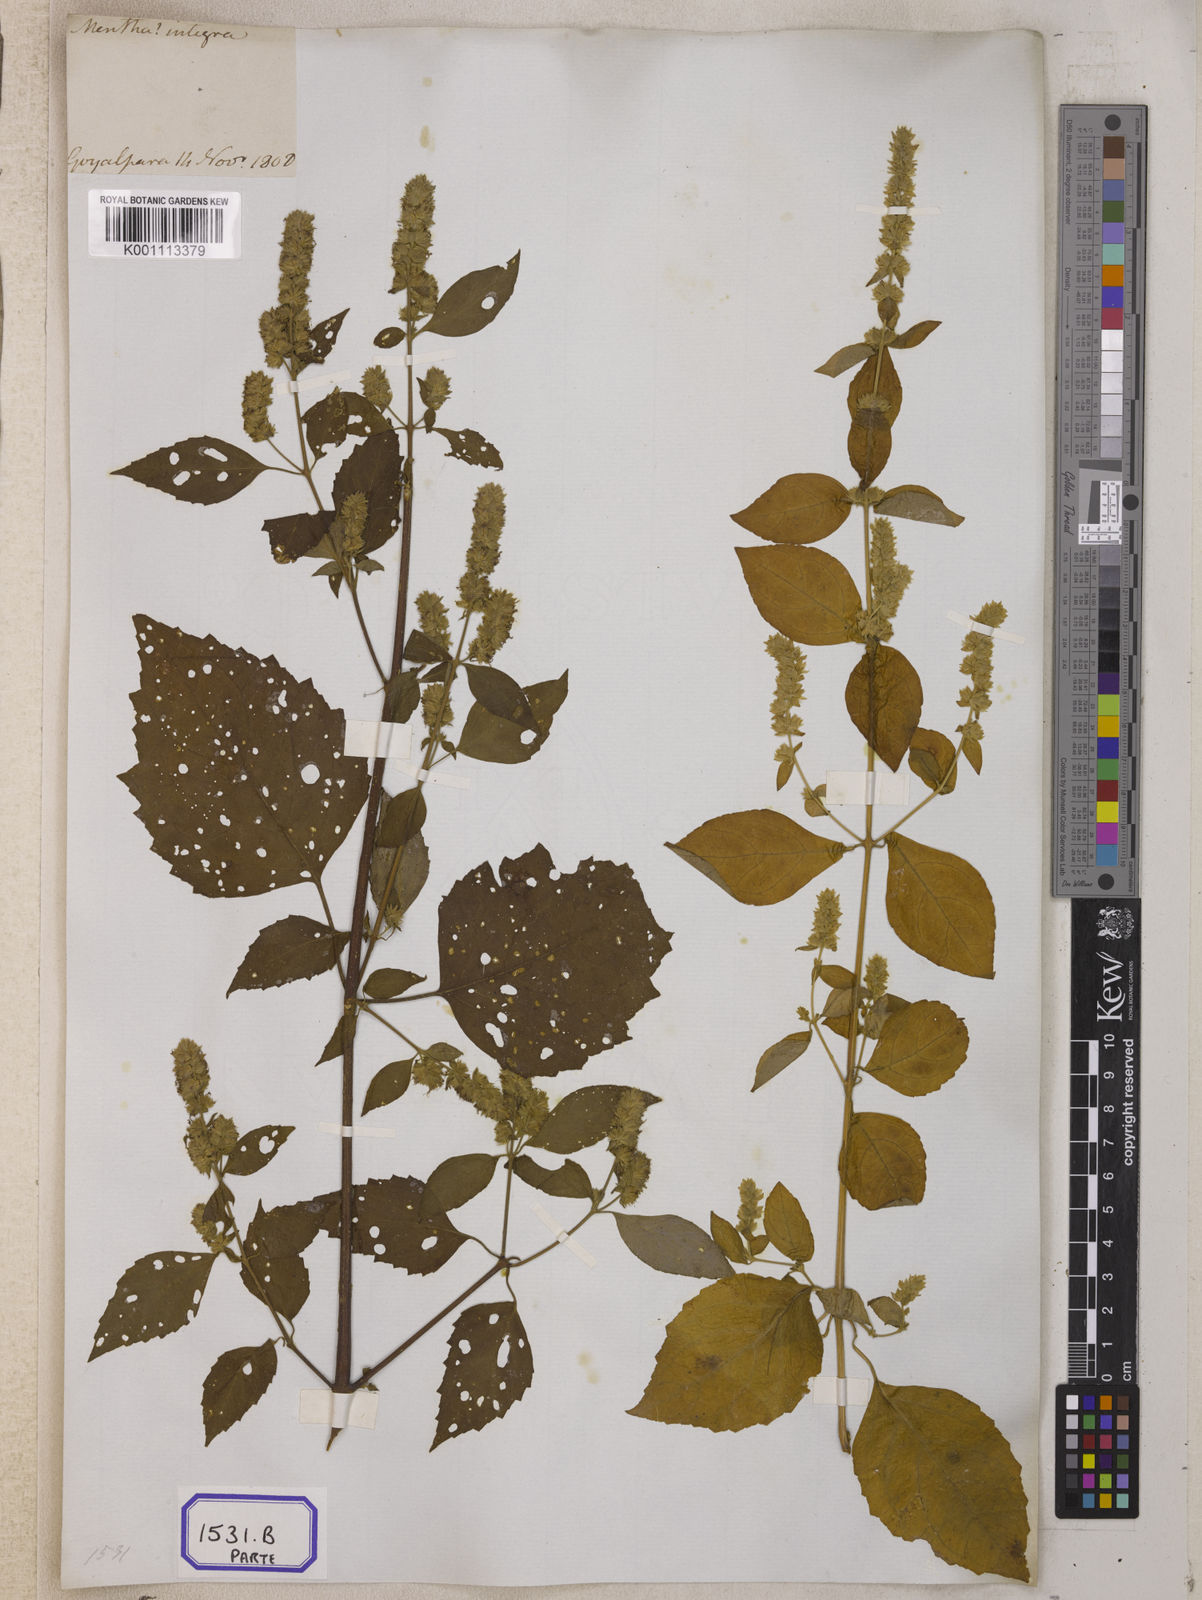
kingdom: Plantae
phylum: Tracheophyta
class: Magnoliopsida
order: Lamiales
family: Lamiaceae
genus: Pogostemon
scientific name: Pogostemon parviflorus
